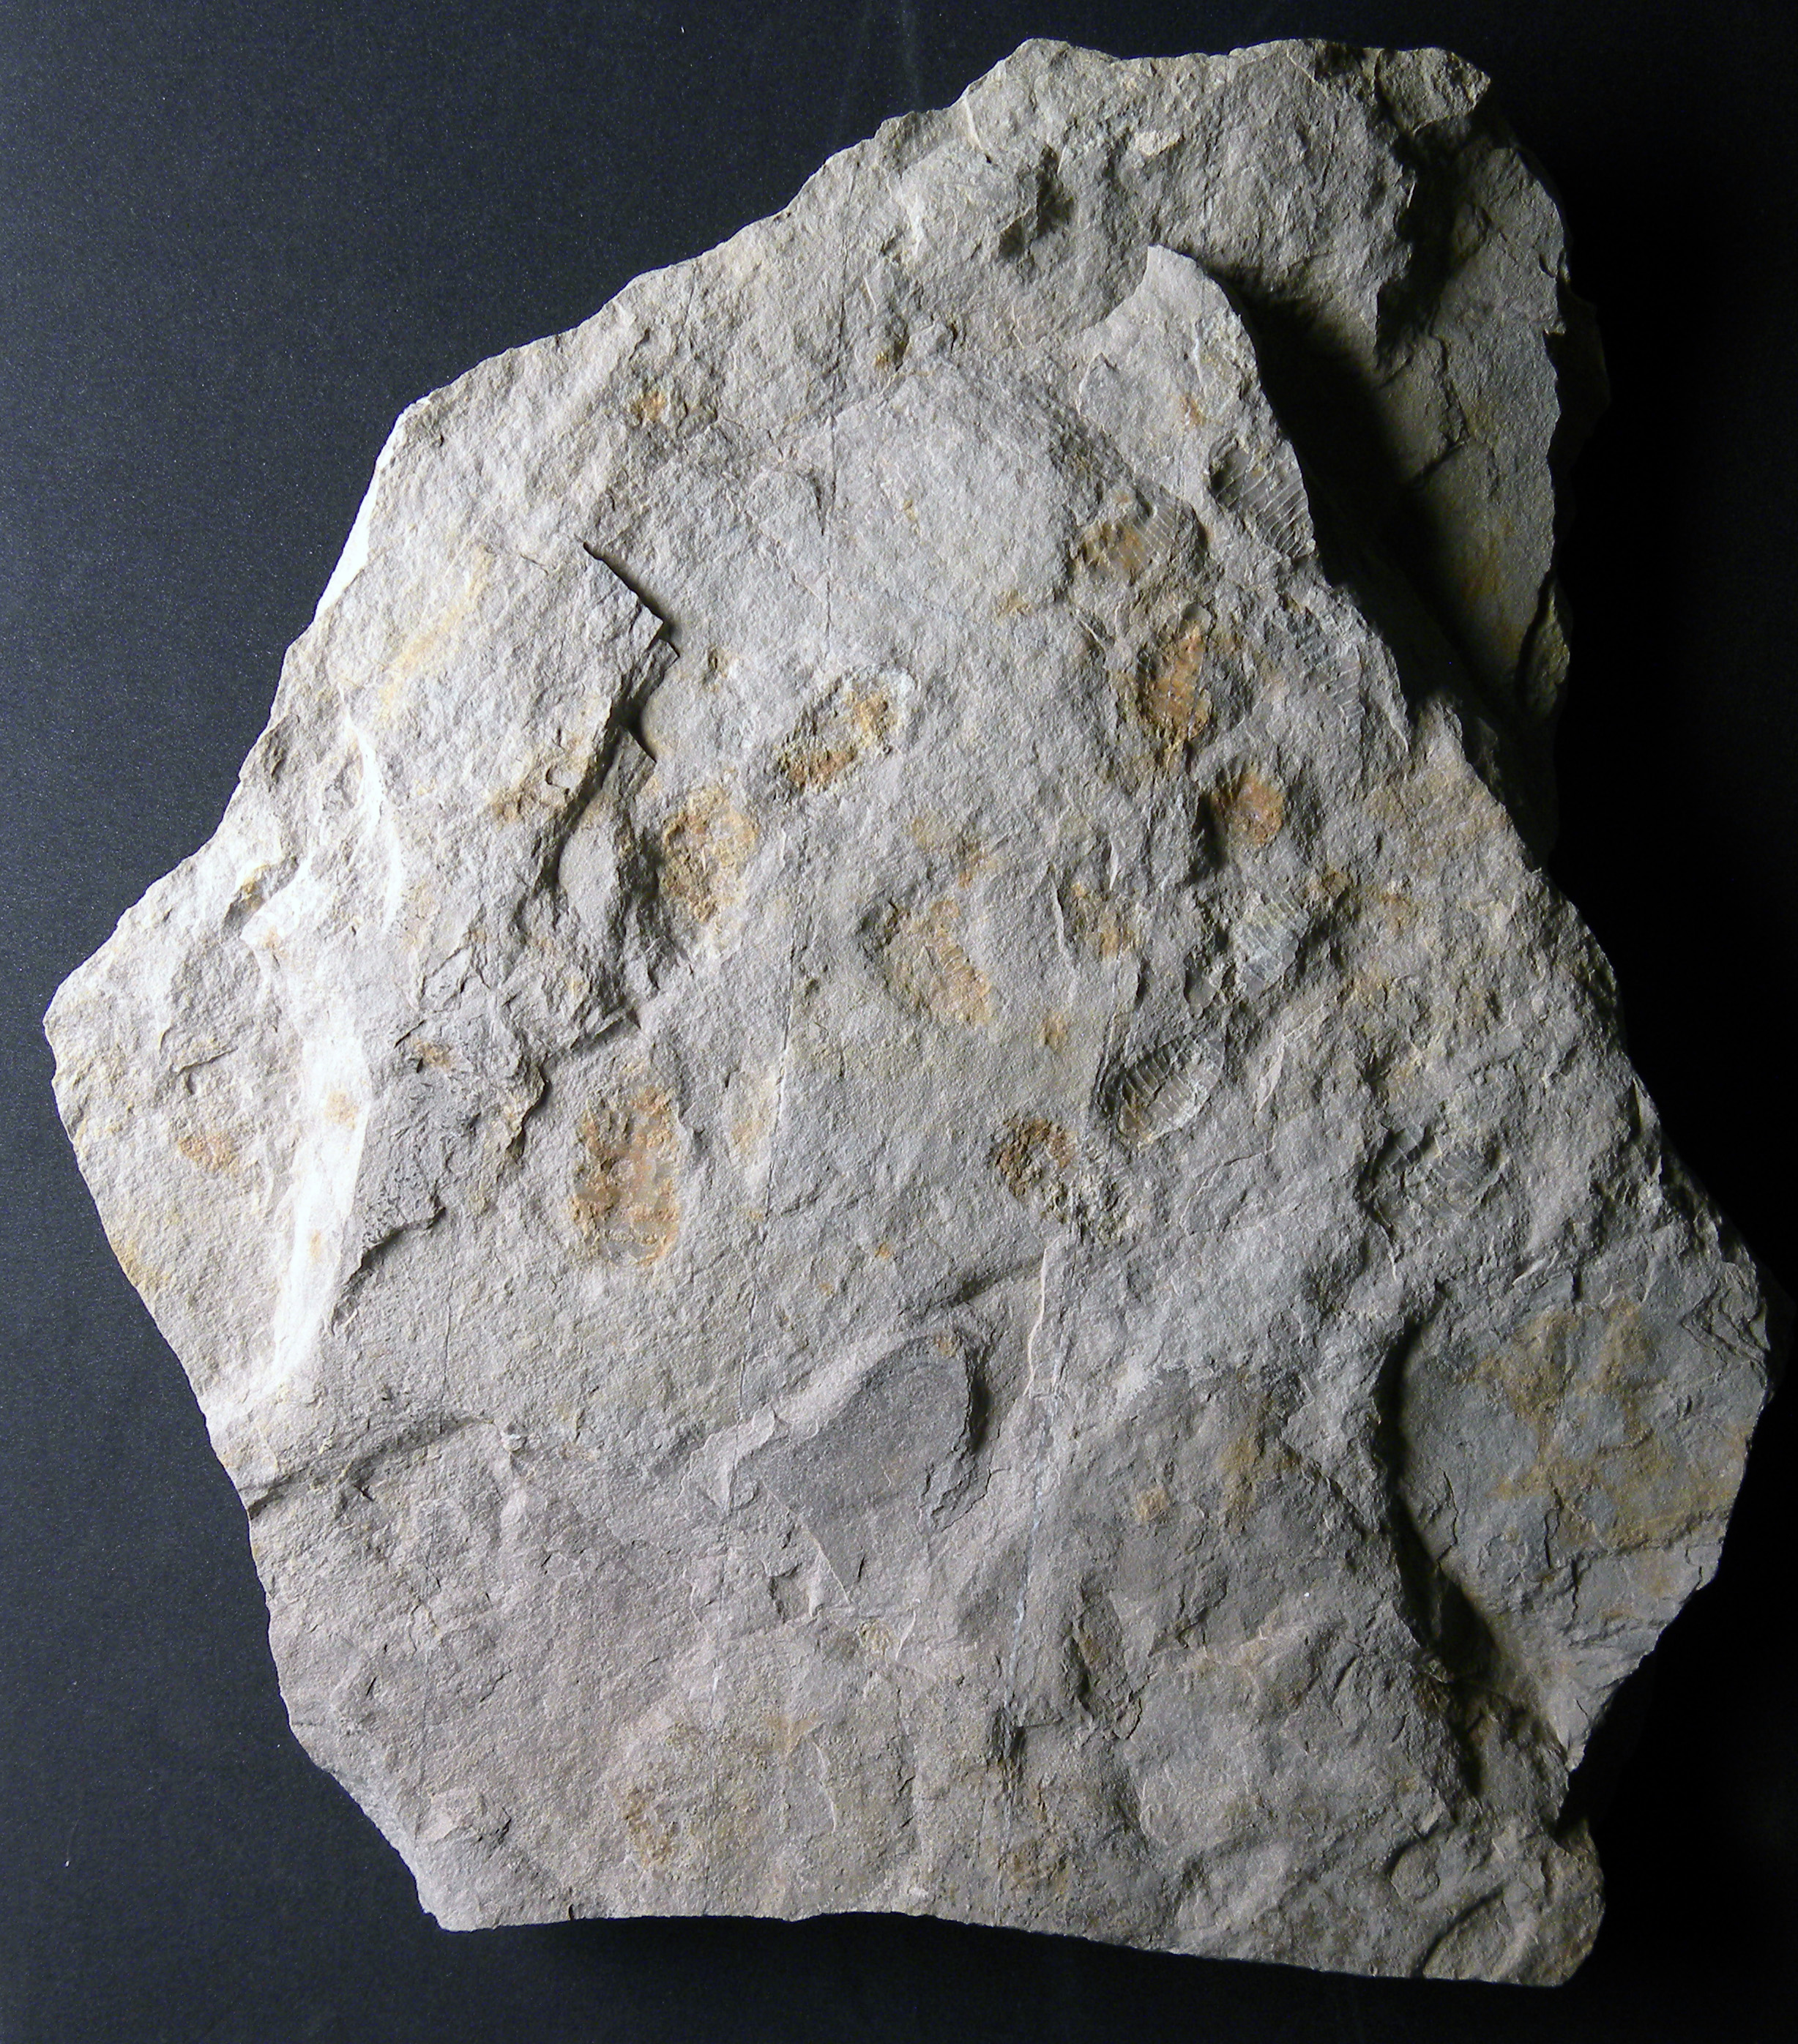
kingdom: Animalia
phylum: Arthropoda
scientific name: Arthropoda
